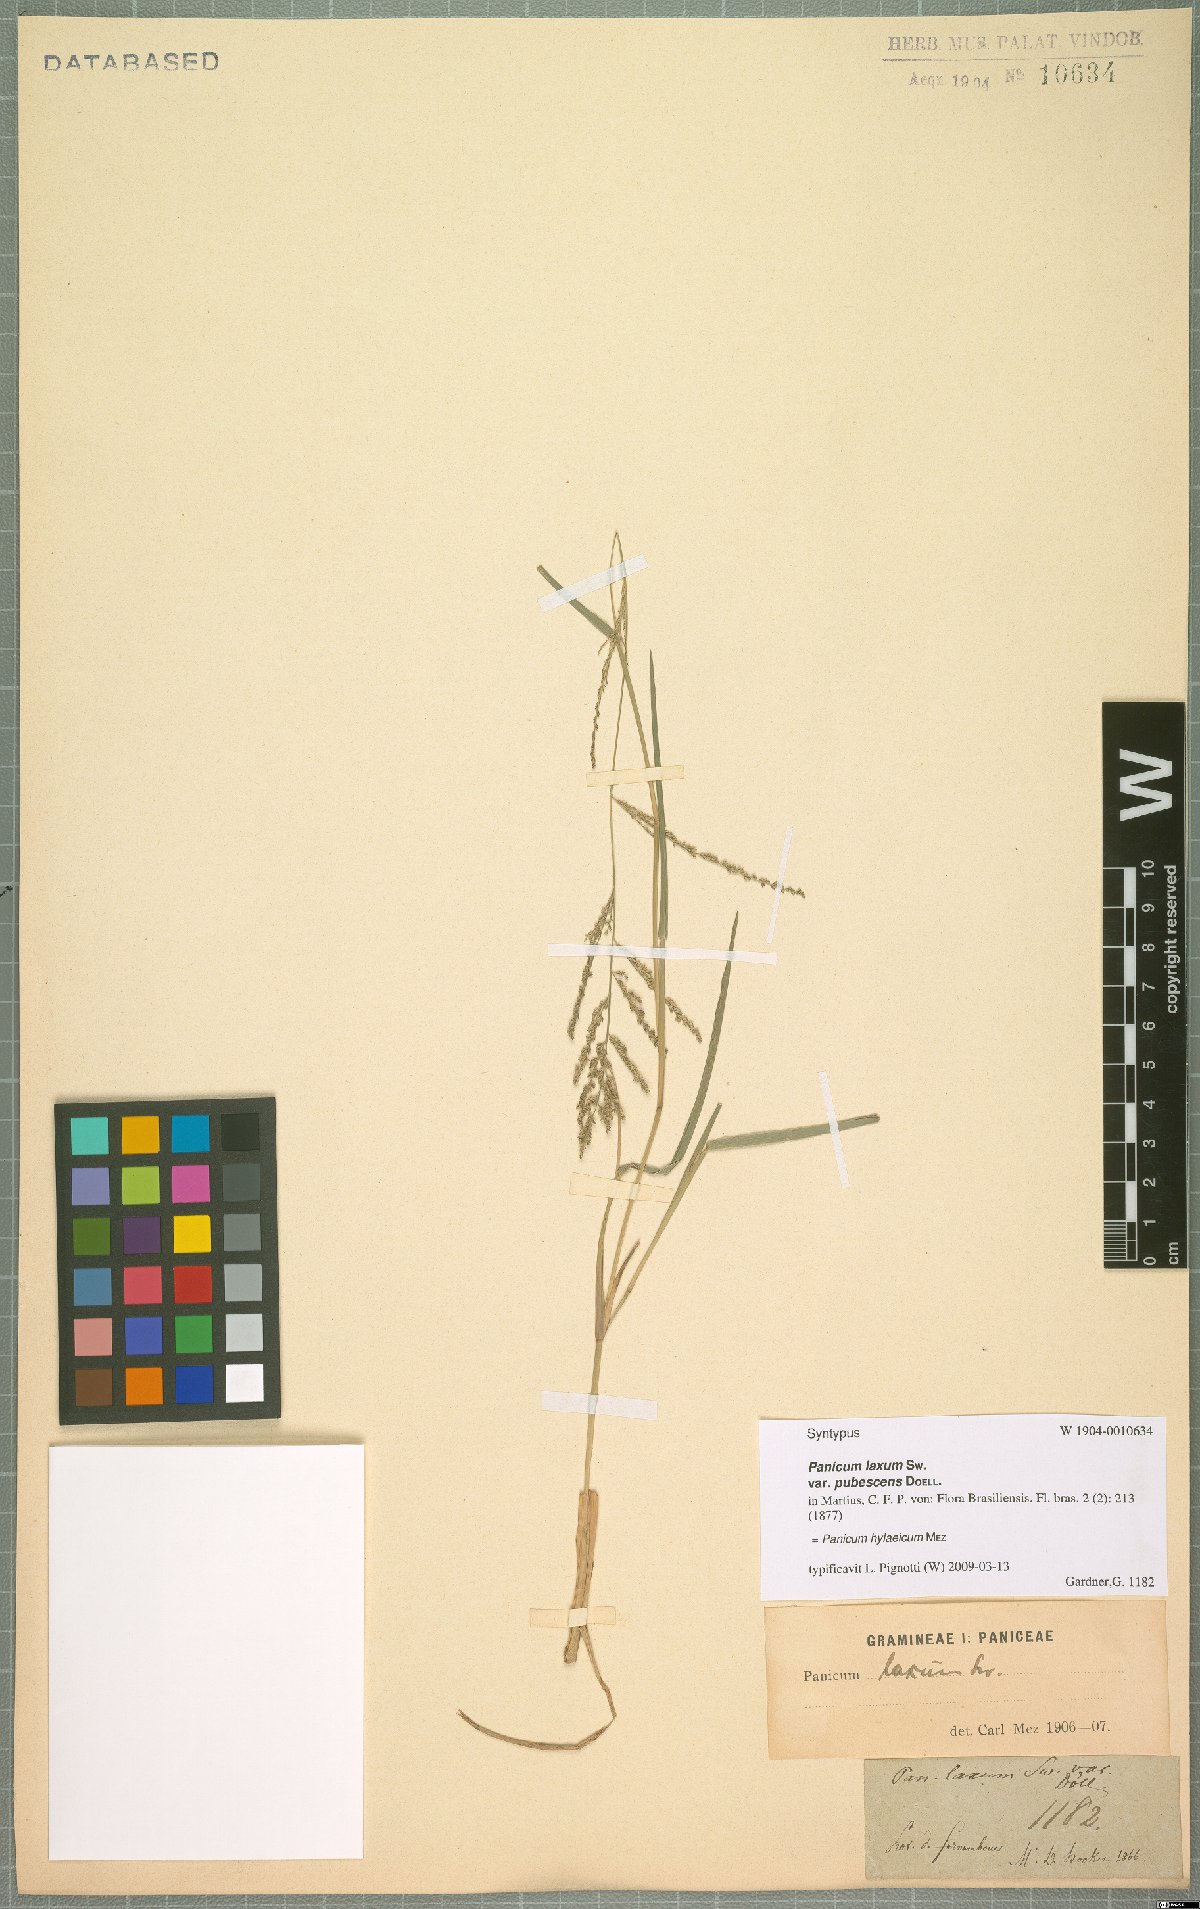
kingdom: Plantae
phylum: Tracheophyta
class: Liliopsida
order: Poales
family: Poaceae
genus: Rugoloa
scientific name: Rugoloa hylaeica
